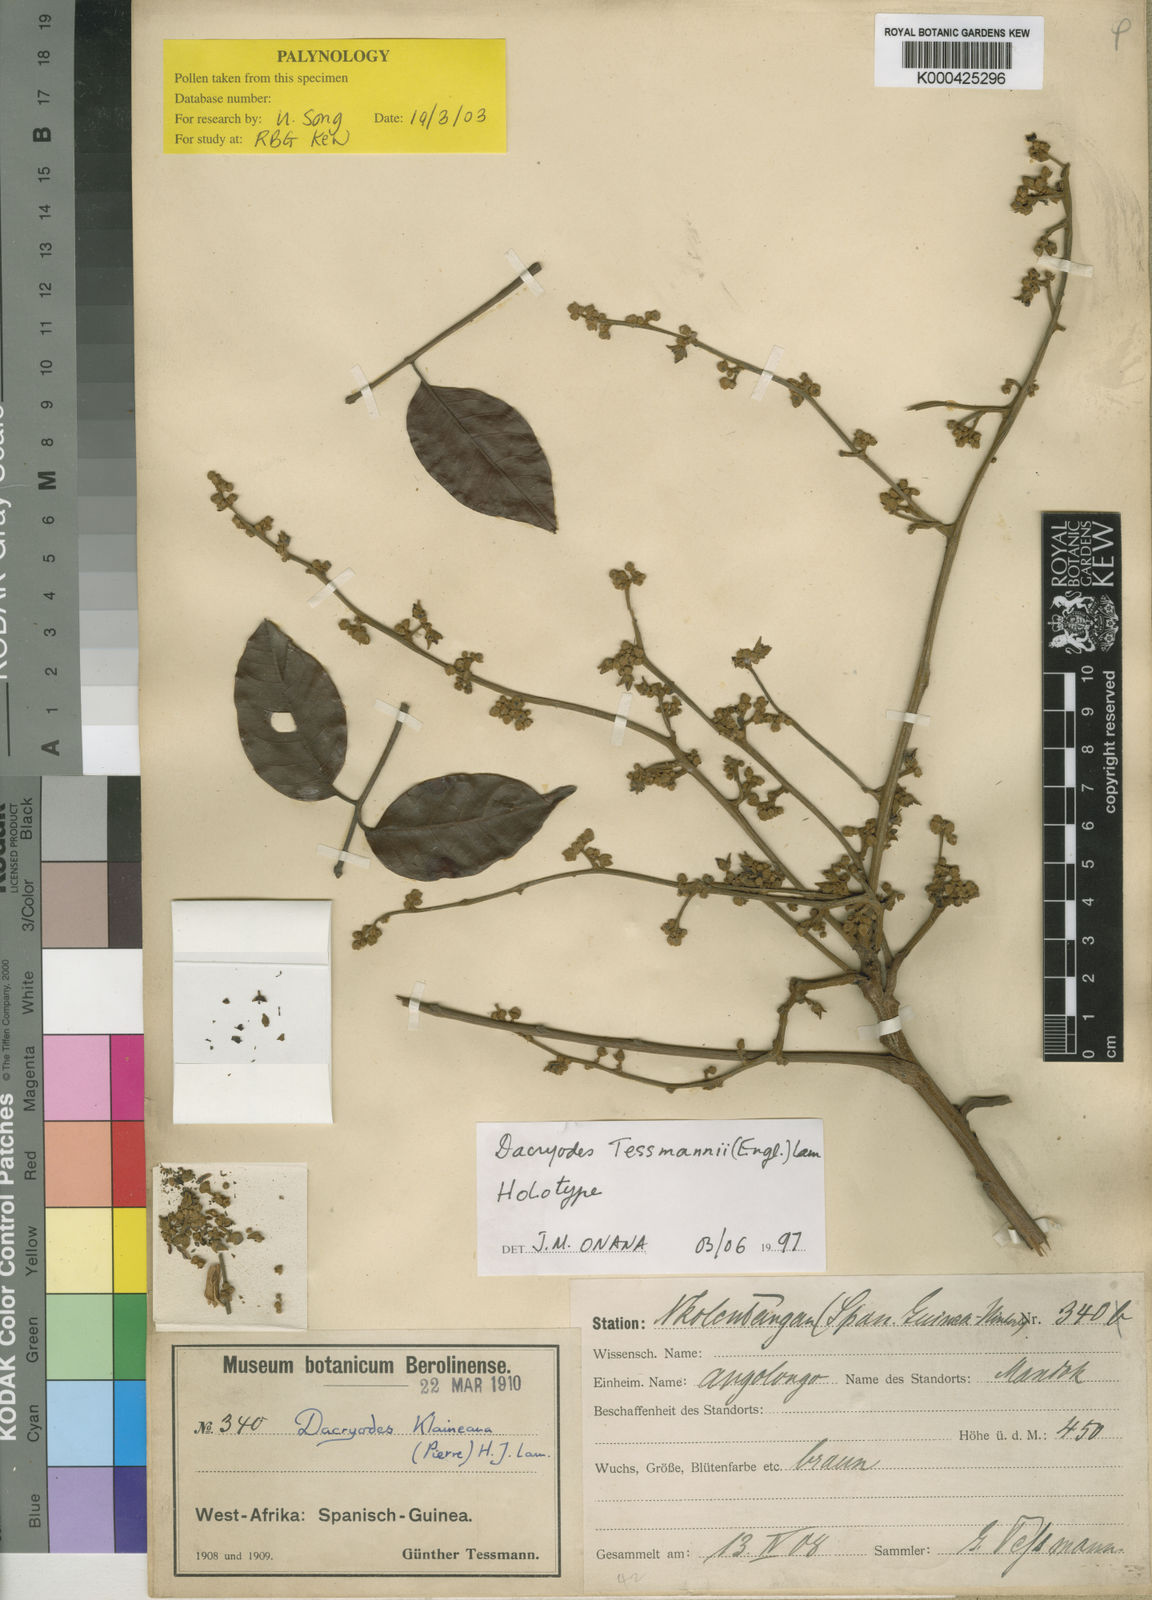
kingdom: Plantae
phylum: Tracheophyta
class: Magnoliopsida
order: Sapindales
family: Burseraceae
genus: Pachylobus
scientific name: Pachylobus tessmannii
